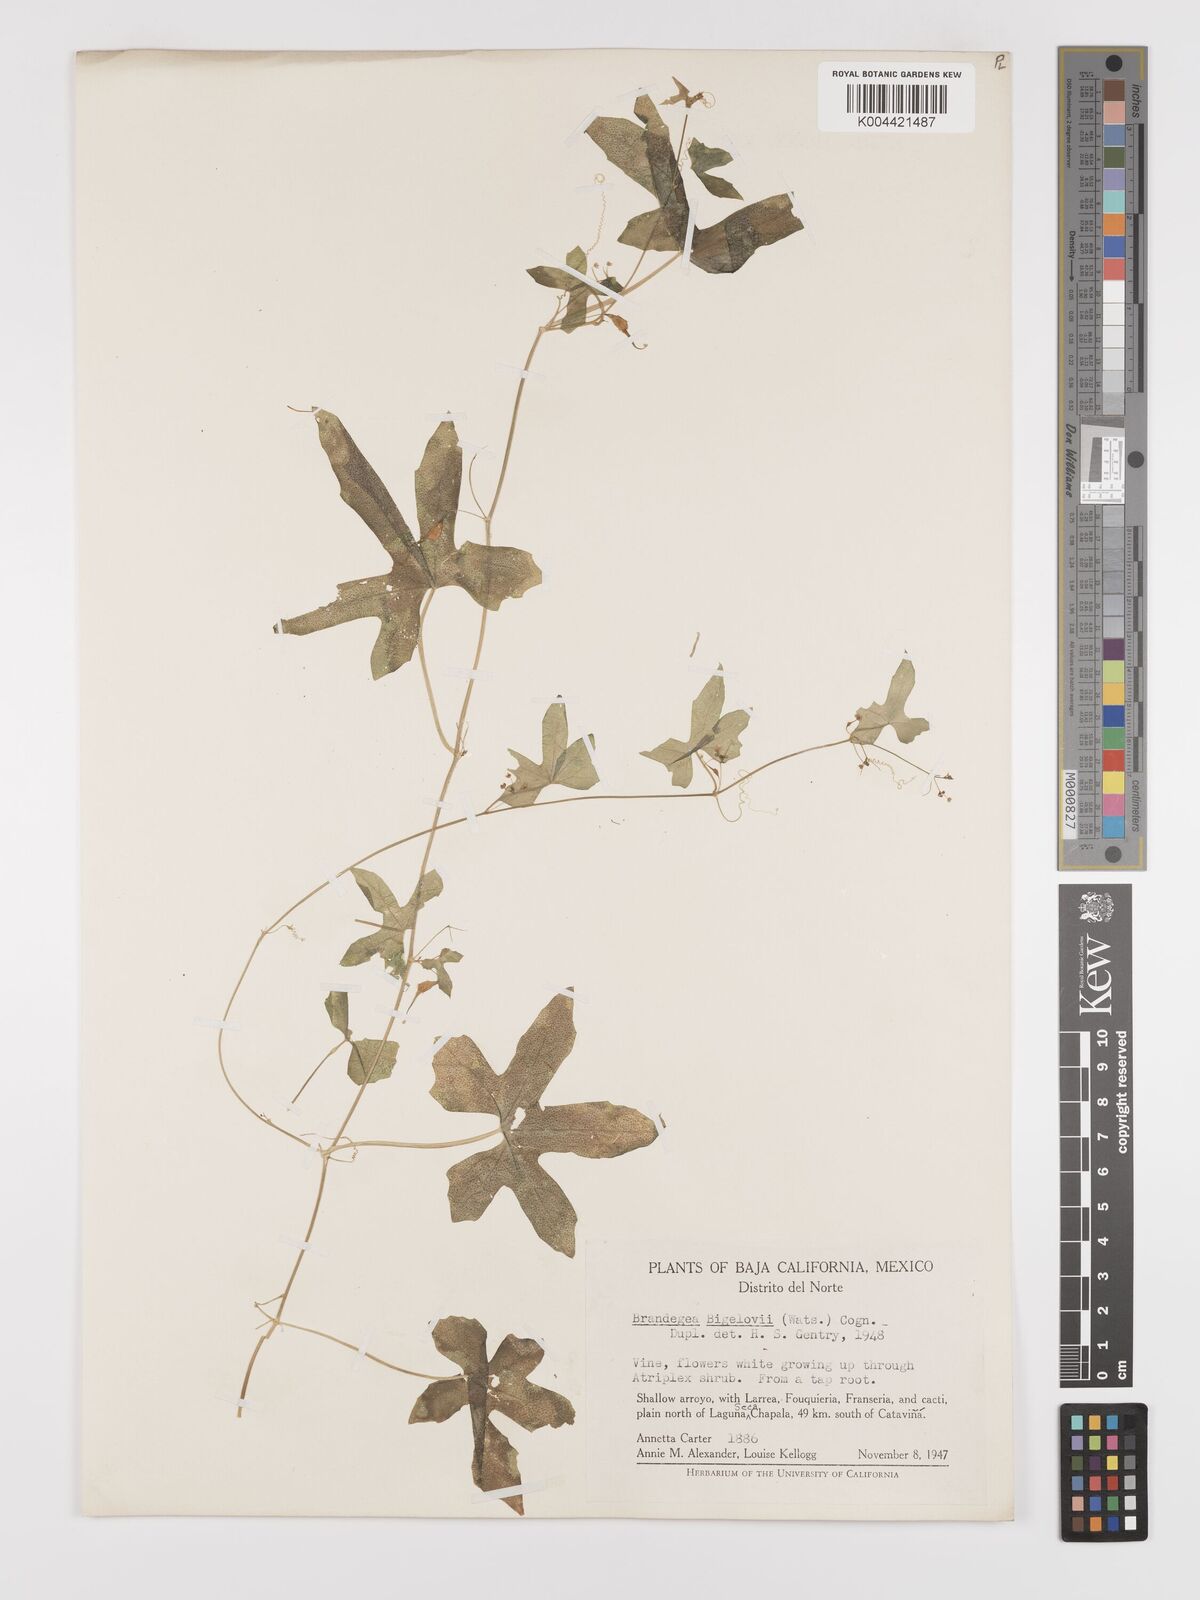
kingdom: Plantae
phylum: Tracheophyta
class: Magnoliopsida
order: Cucurbitales
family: Cucurbitaceae
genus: Echinopepon
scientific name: Echinopepon bigelovii
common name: Desert starvine
